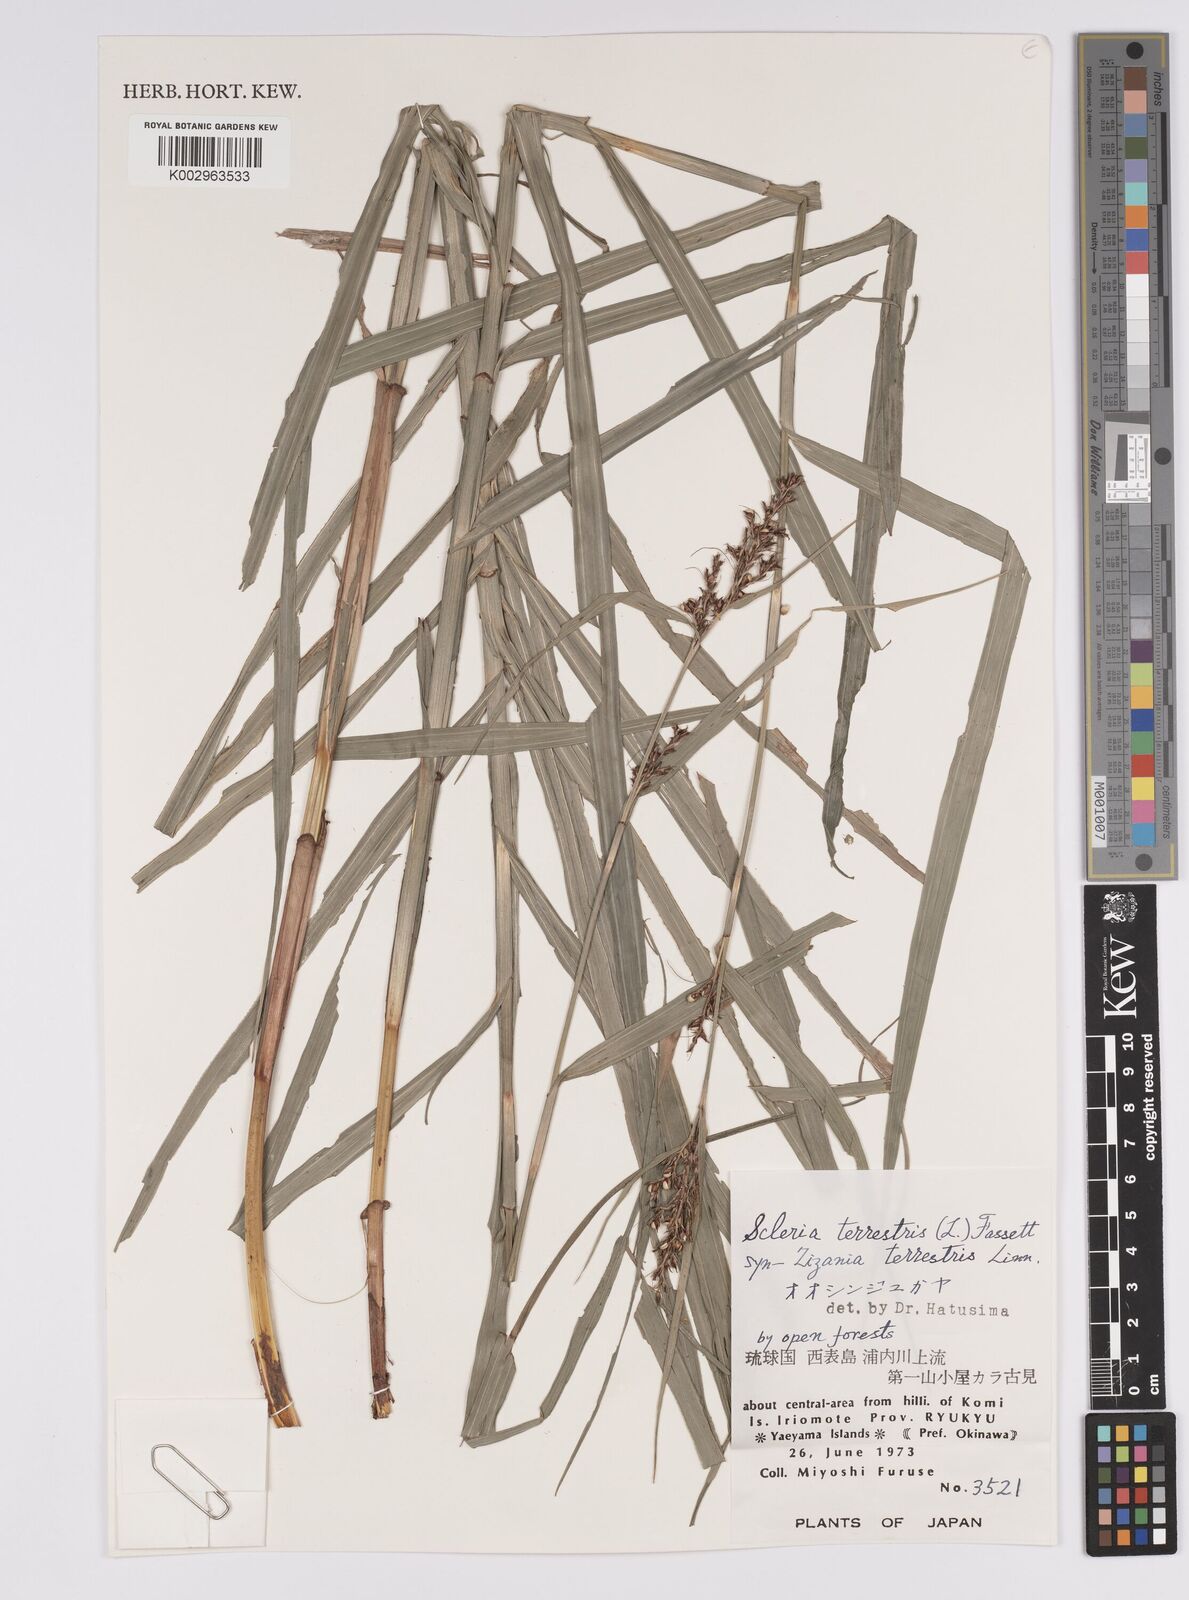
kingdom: Plantae
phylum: Tracheophyta
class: Liliopsida
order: Poales
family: Cyperaceae
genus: Scleria
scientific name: Scleria terrestris
